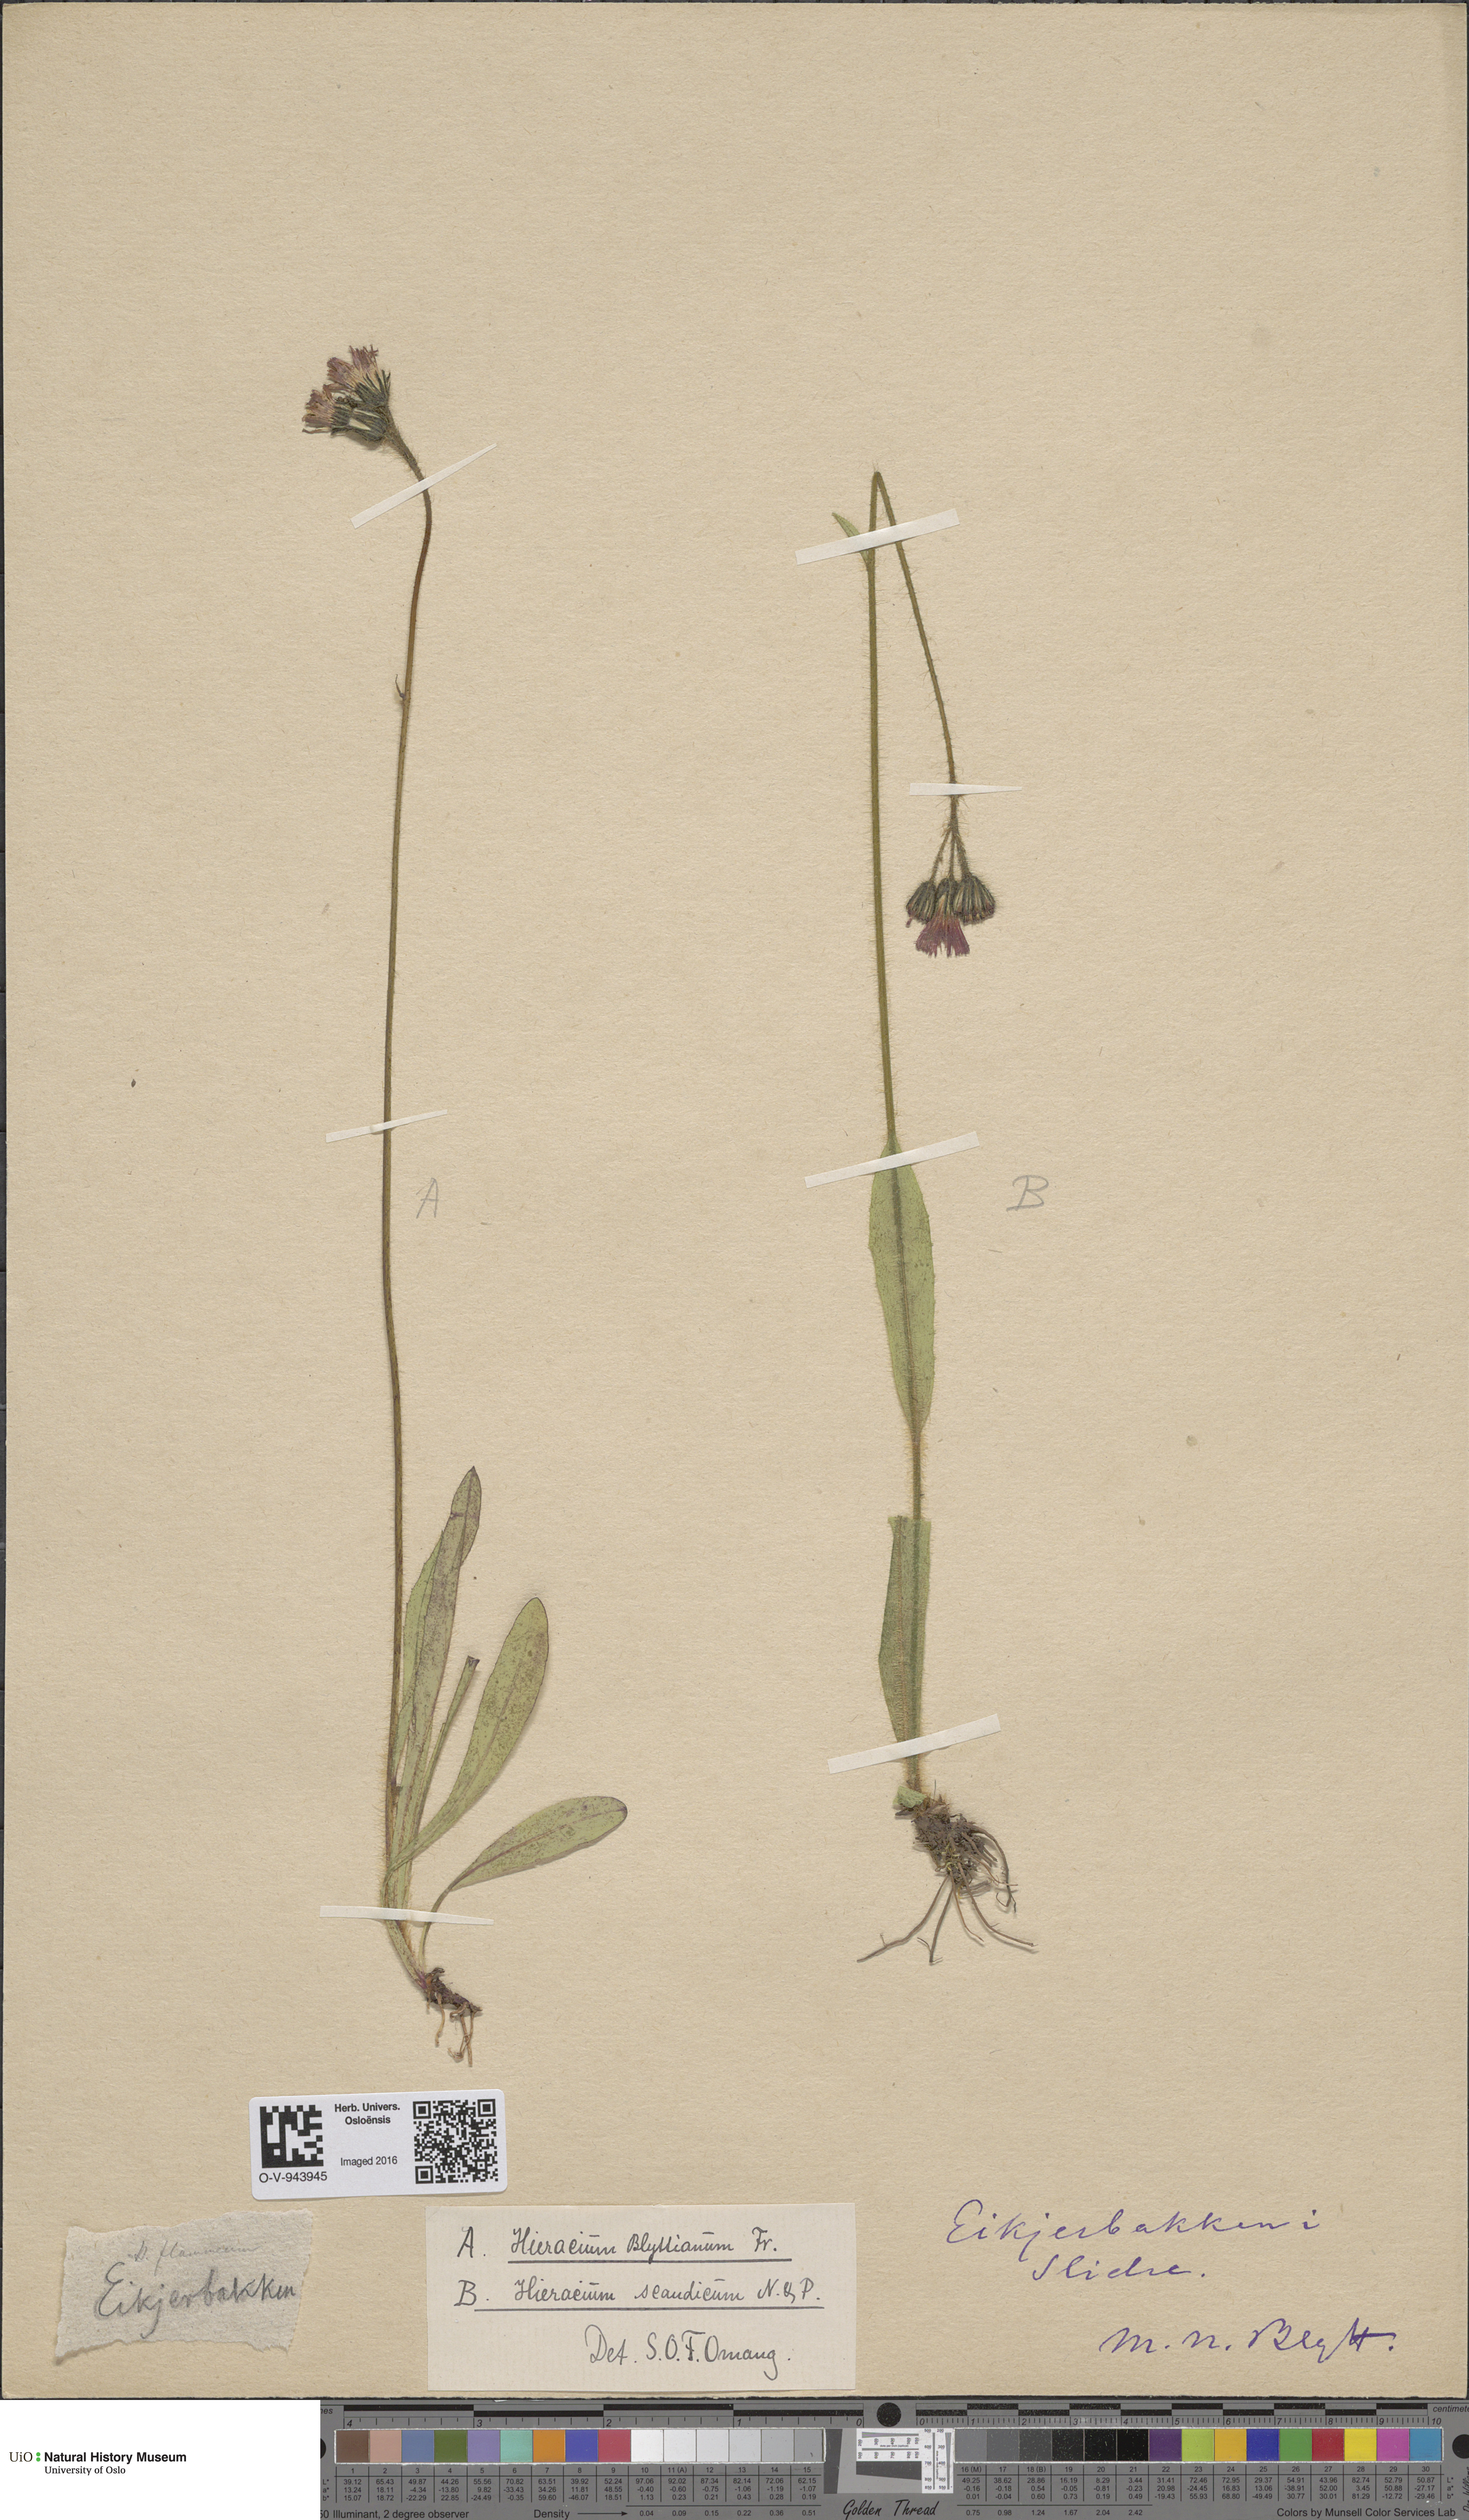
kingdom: Plantae
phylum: Tracheophyta
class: Magnoliopsida
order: Asterales
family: Asteraceae
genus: Pilosella
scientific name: Pilosella blyttiana
